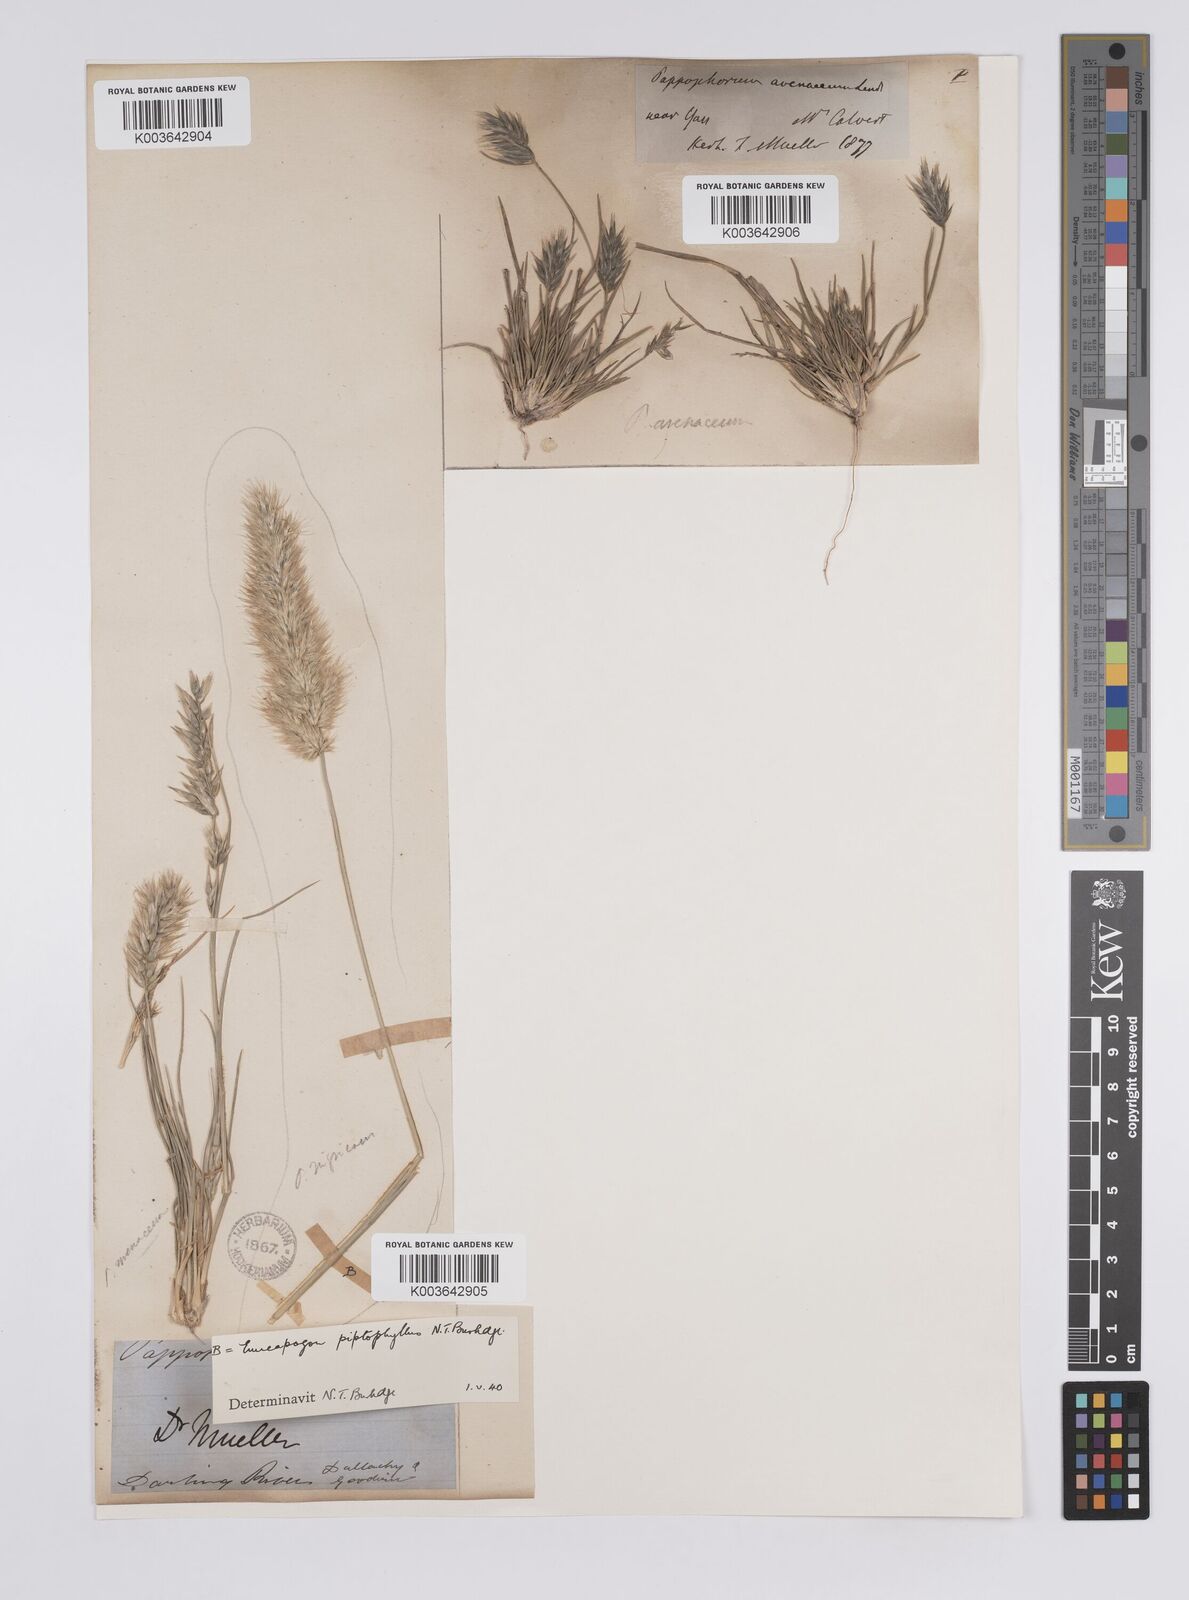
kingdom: Plantae
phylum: Tracheophyta
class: Liliopsida
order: Poales
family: Poaceae
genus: Enneapogon
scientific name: Enneapogon avenaceus
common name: Hairy oat grass
